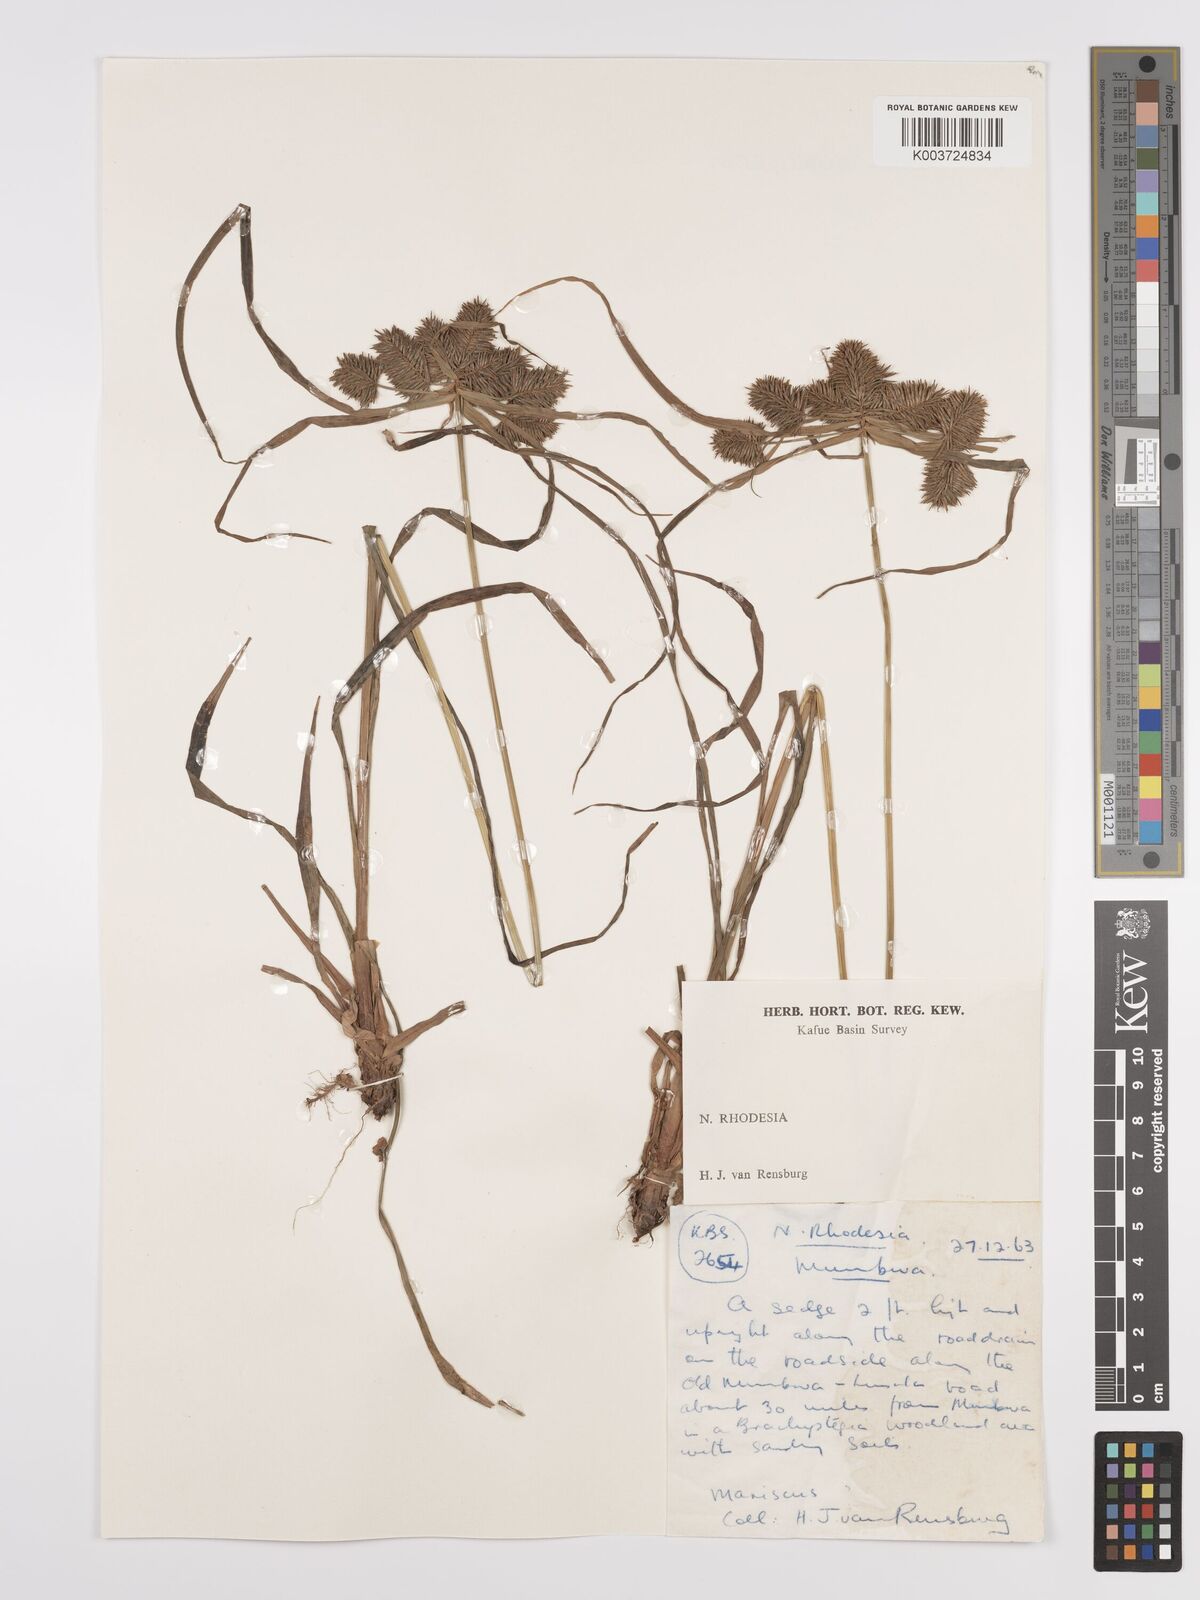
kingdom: Plantae
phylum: Tracheophyta
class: Liliopsida
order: Poales
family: Cyperaceae
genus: Cyperus
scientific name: Cyperus cyperoides
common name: Pacific island flat sedge
